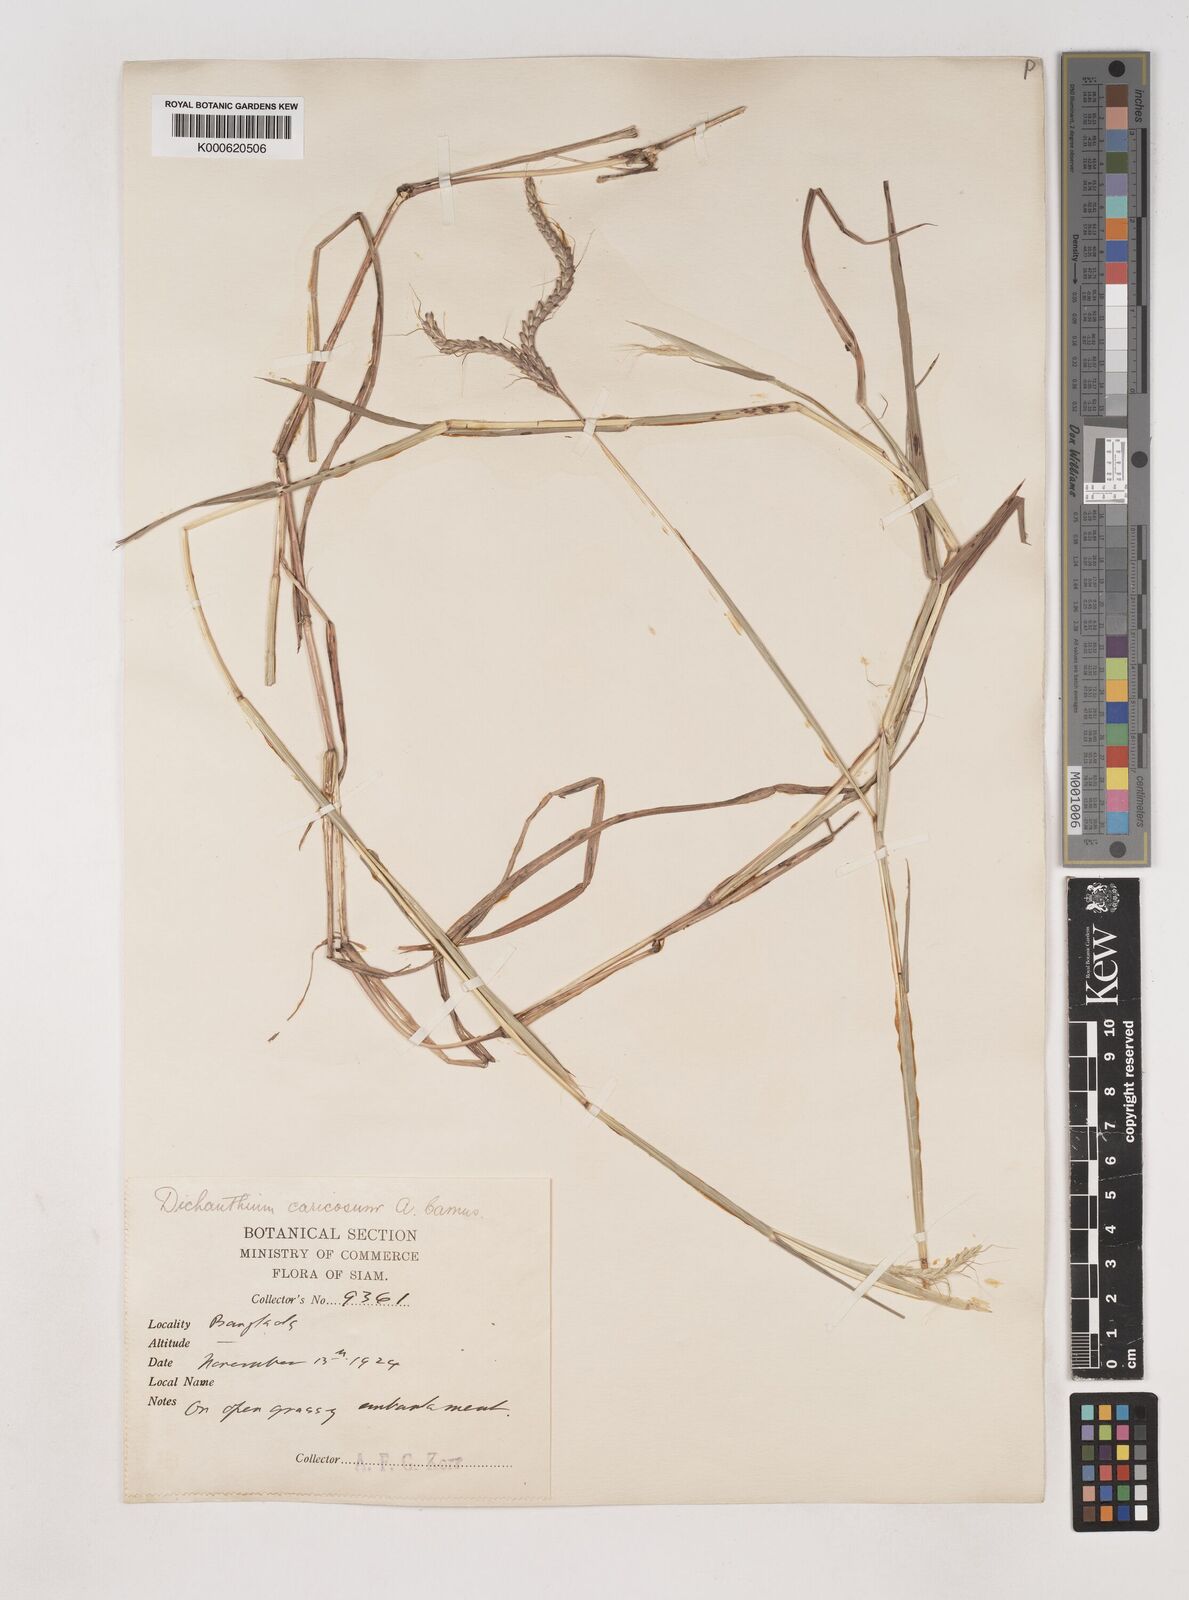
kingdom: Plantae
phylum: Tracheophyta
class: Liliopsida
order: Poales
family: Poaceae
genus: Dichanthium
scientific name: Dichanthium caricosum
